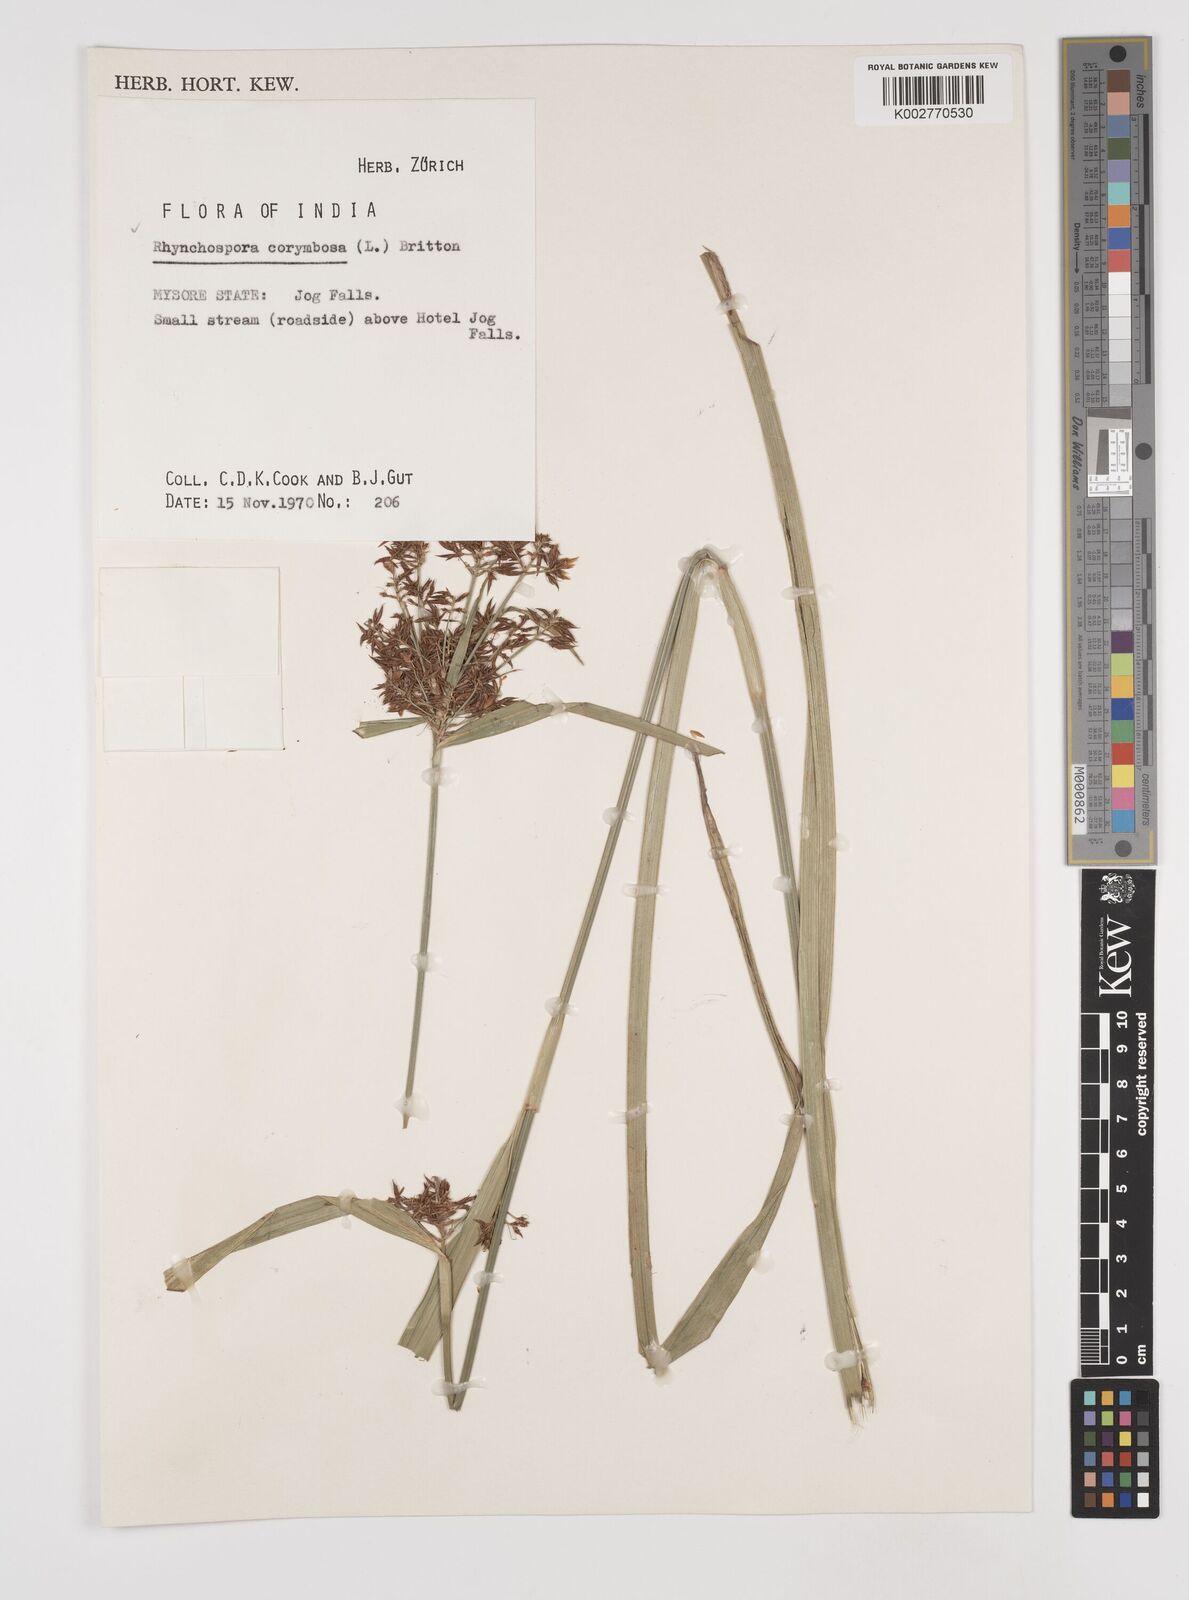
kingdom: Plantae
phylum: Tracheophyta
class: Liliopsida
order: Poales
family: Cyperaceae
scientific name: Cyperaceae
